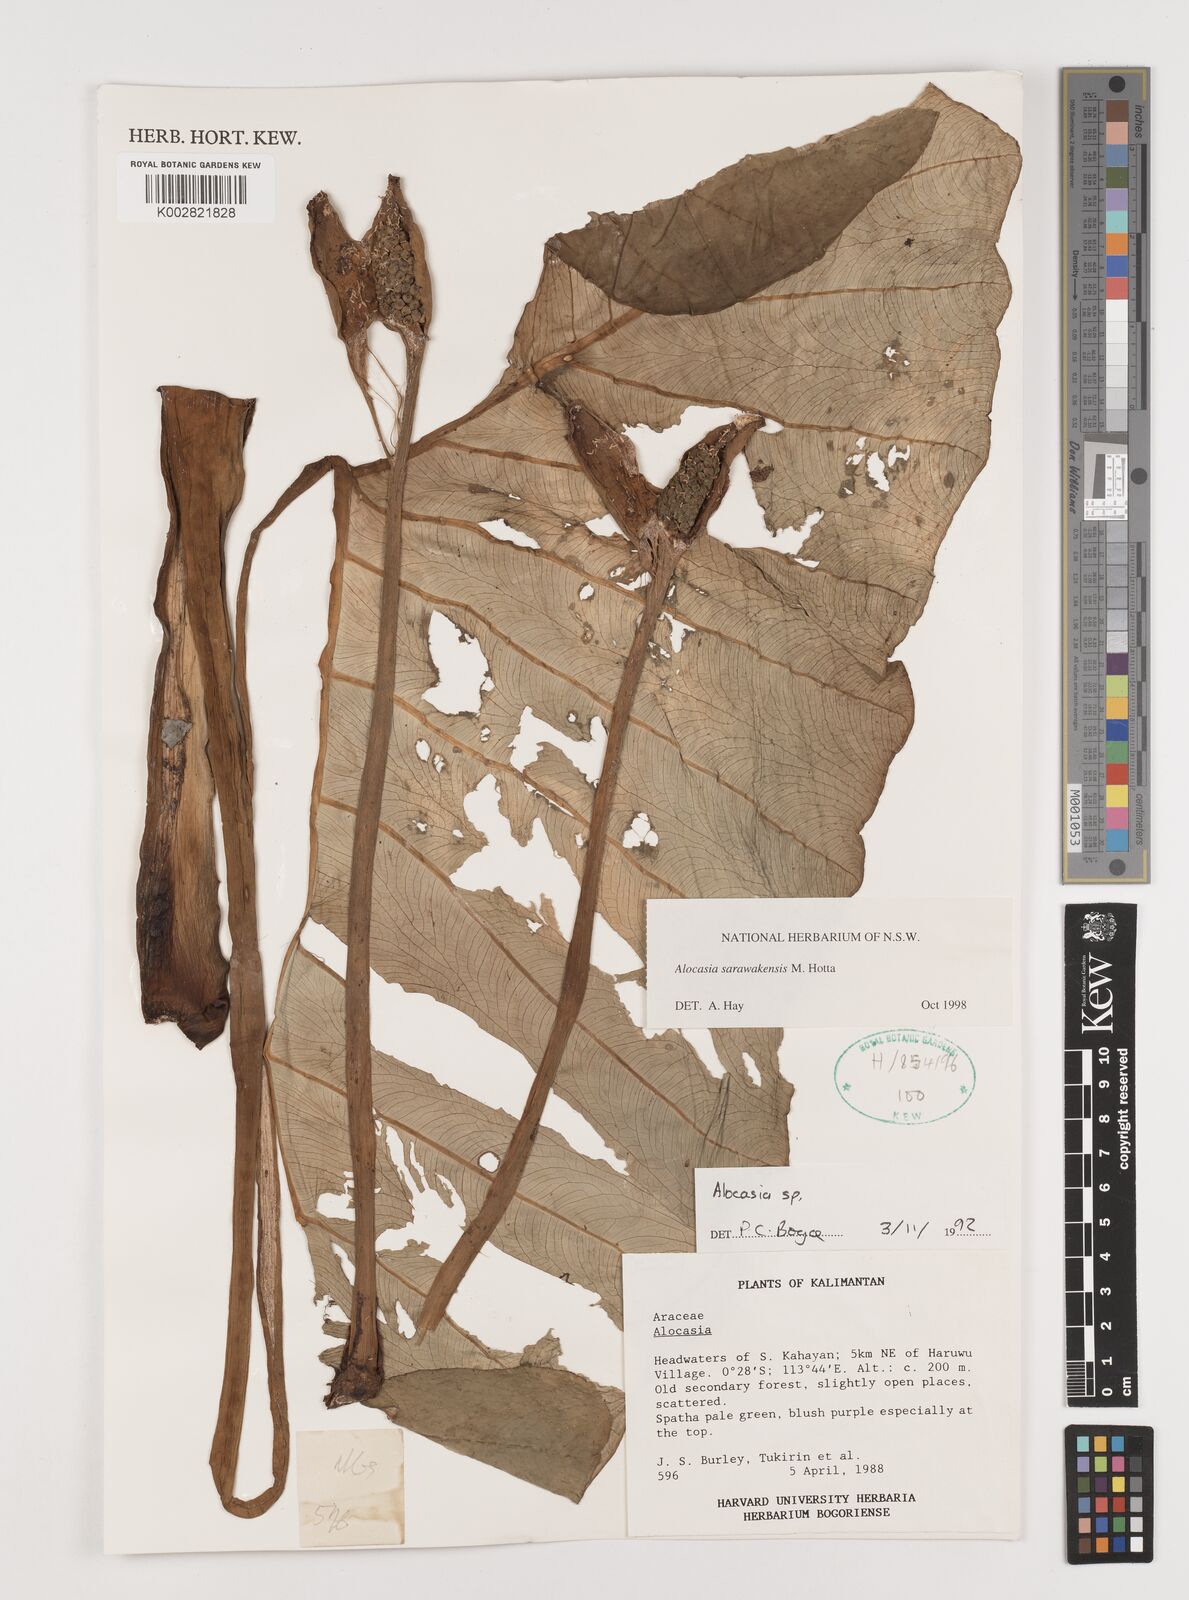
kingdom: Plantae
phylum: Tracheophyta
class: Liliopsida
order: Alismatales
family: Araceae
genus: Alocasia
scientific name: Alocasia sarawakensis
